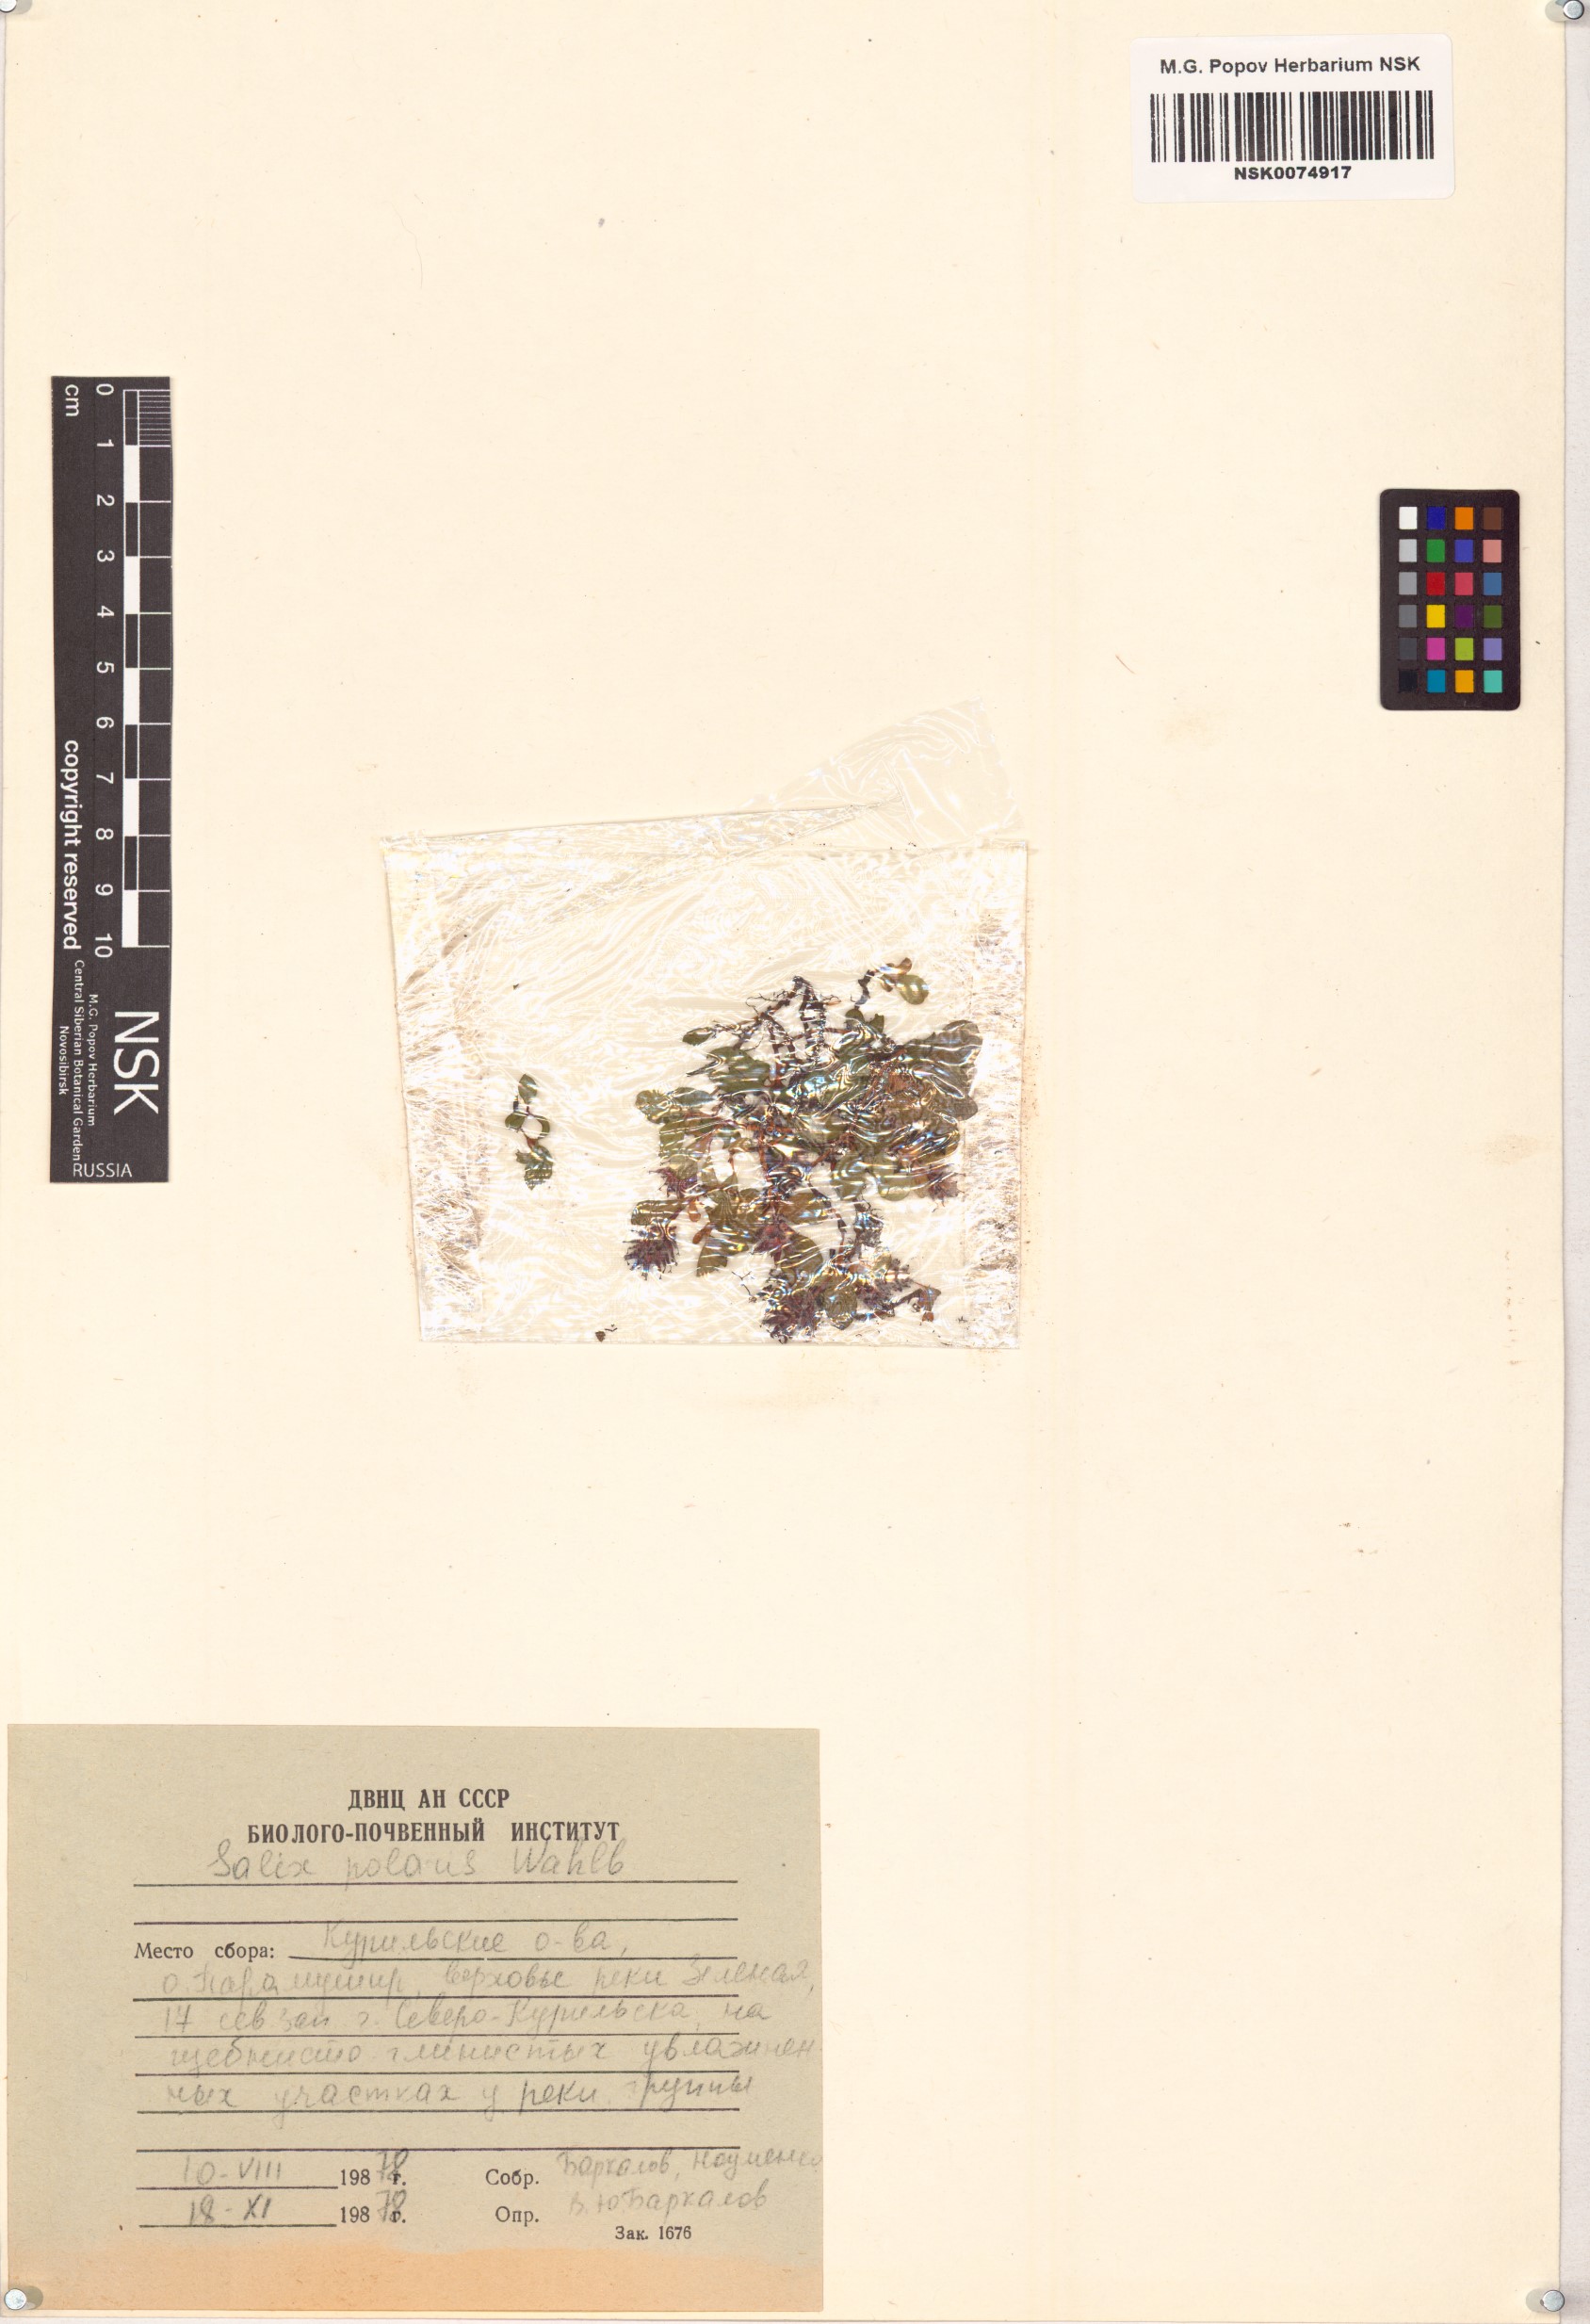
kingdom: Plantae
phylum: Tracheophyta
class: Magnoliopsida
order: Malpighiales
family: Salicaceae
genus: Salix
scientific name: Salix polaris
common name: Polar willow
